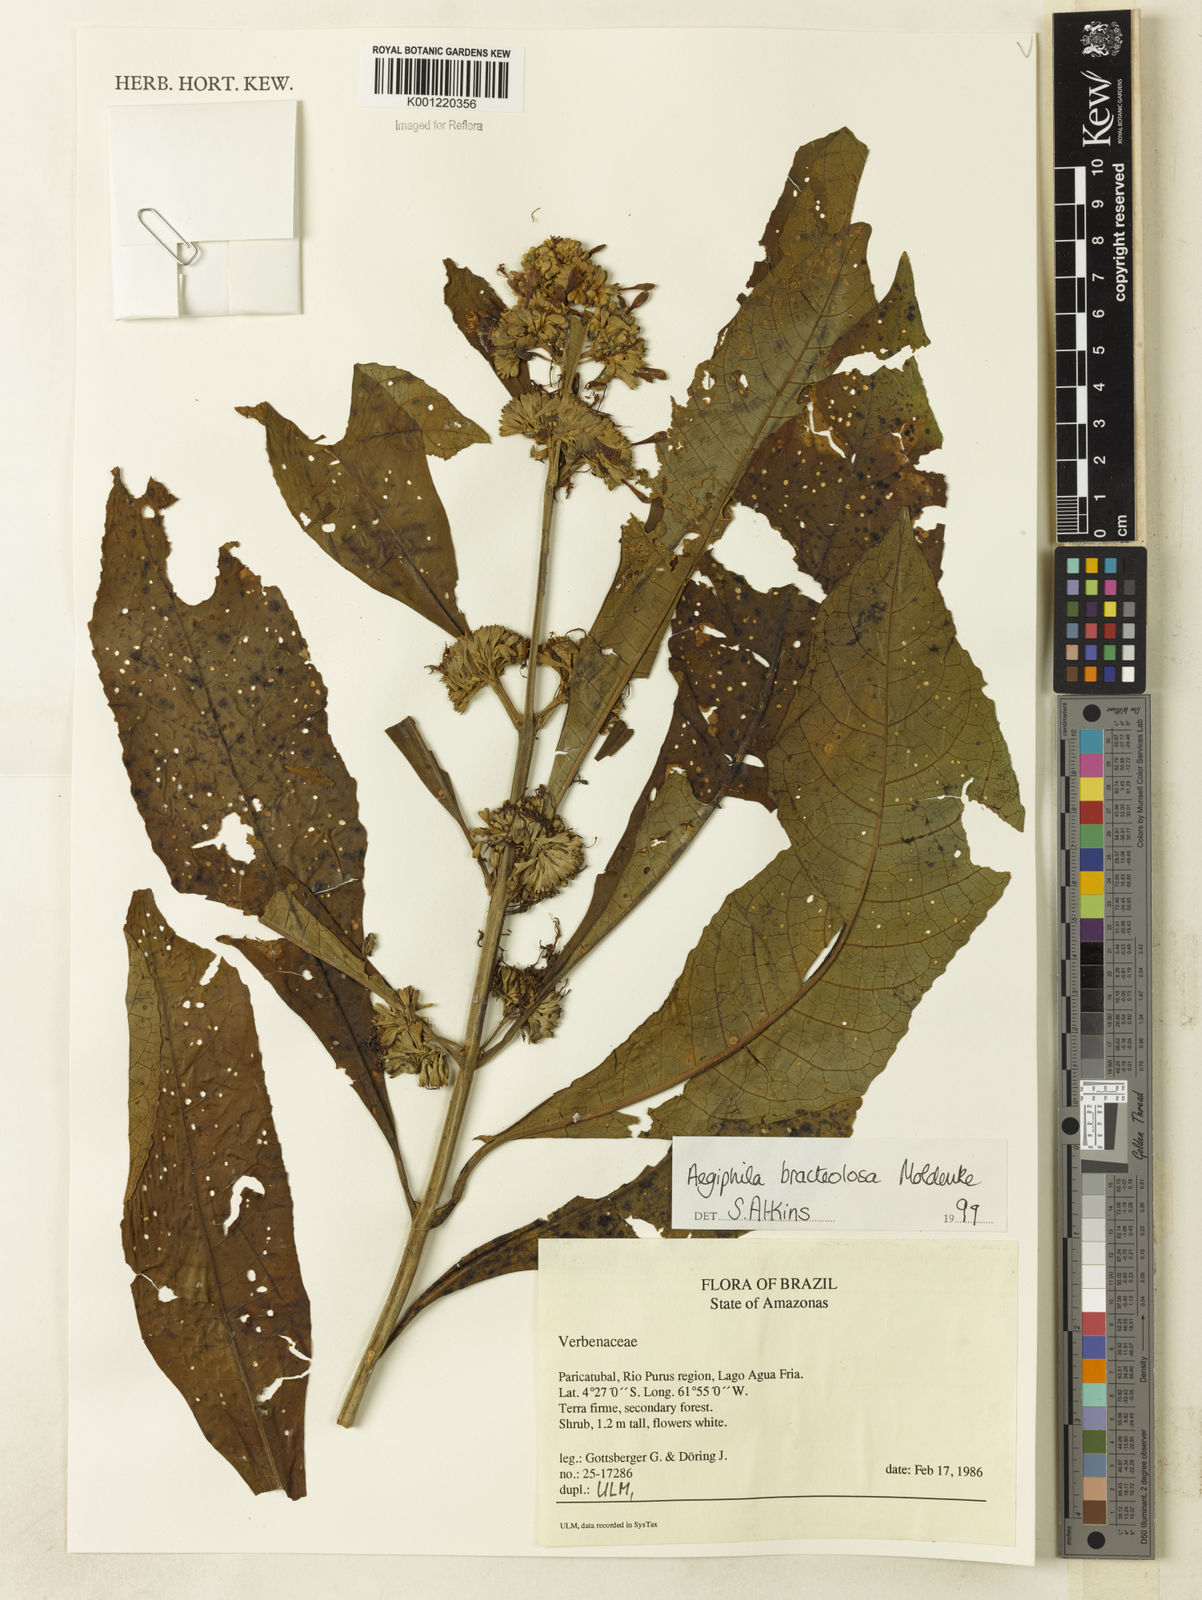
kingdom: Plantae
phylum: Tracheophyta
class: Magnoliopsida
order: Lamiales
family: Lamiaceae
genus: Aegiphila
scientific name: Aegiphila bracteolosa
